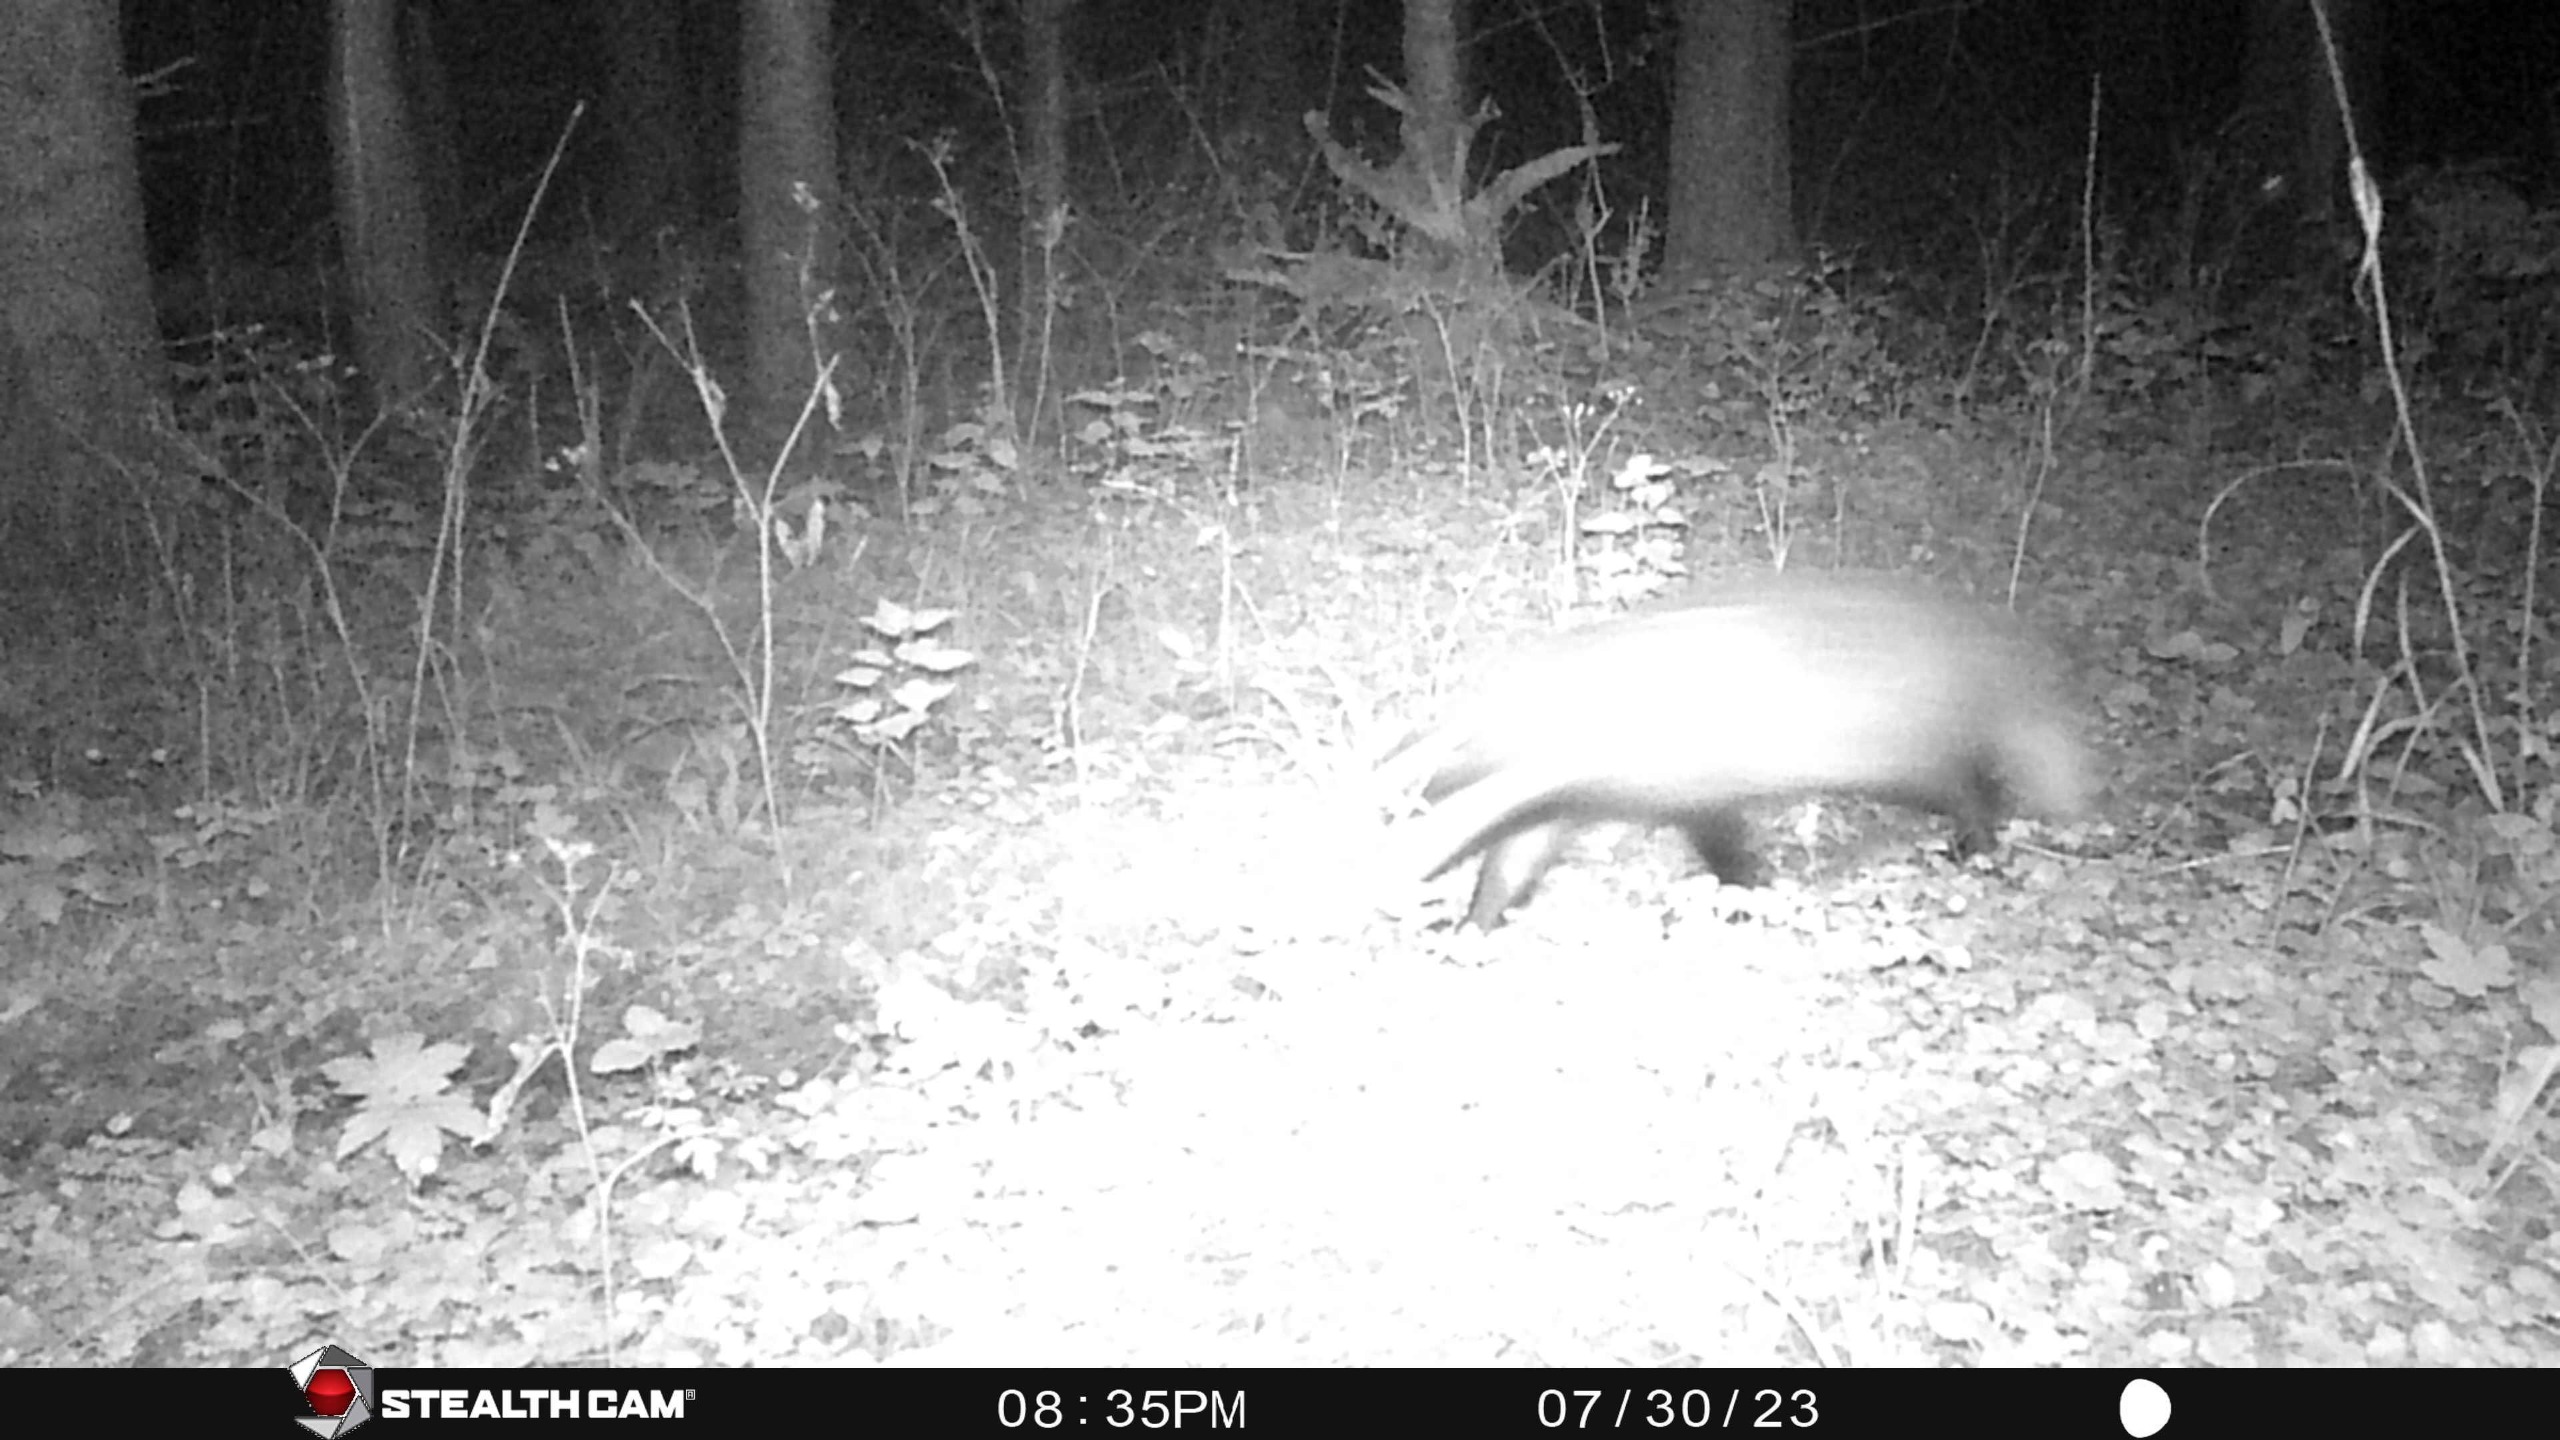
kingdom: Animalia
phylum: Chordata
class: Mammalia
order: Carnivora
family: Mustelidae
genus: Meles
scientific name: Meles meles
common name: Grævling
